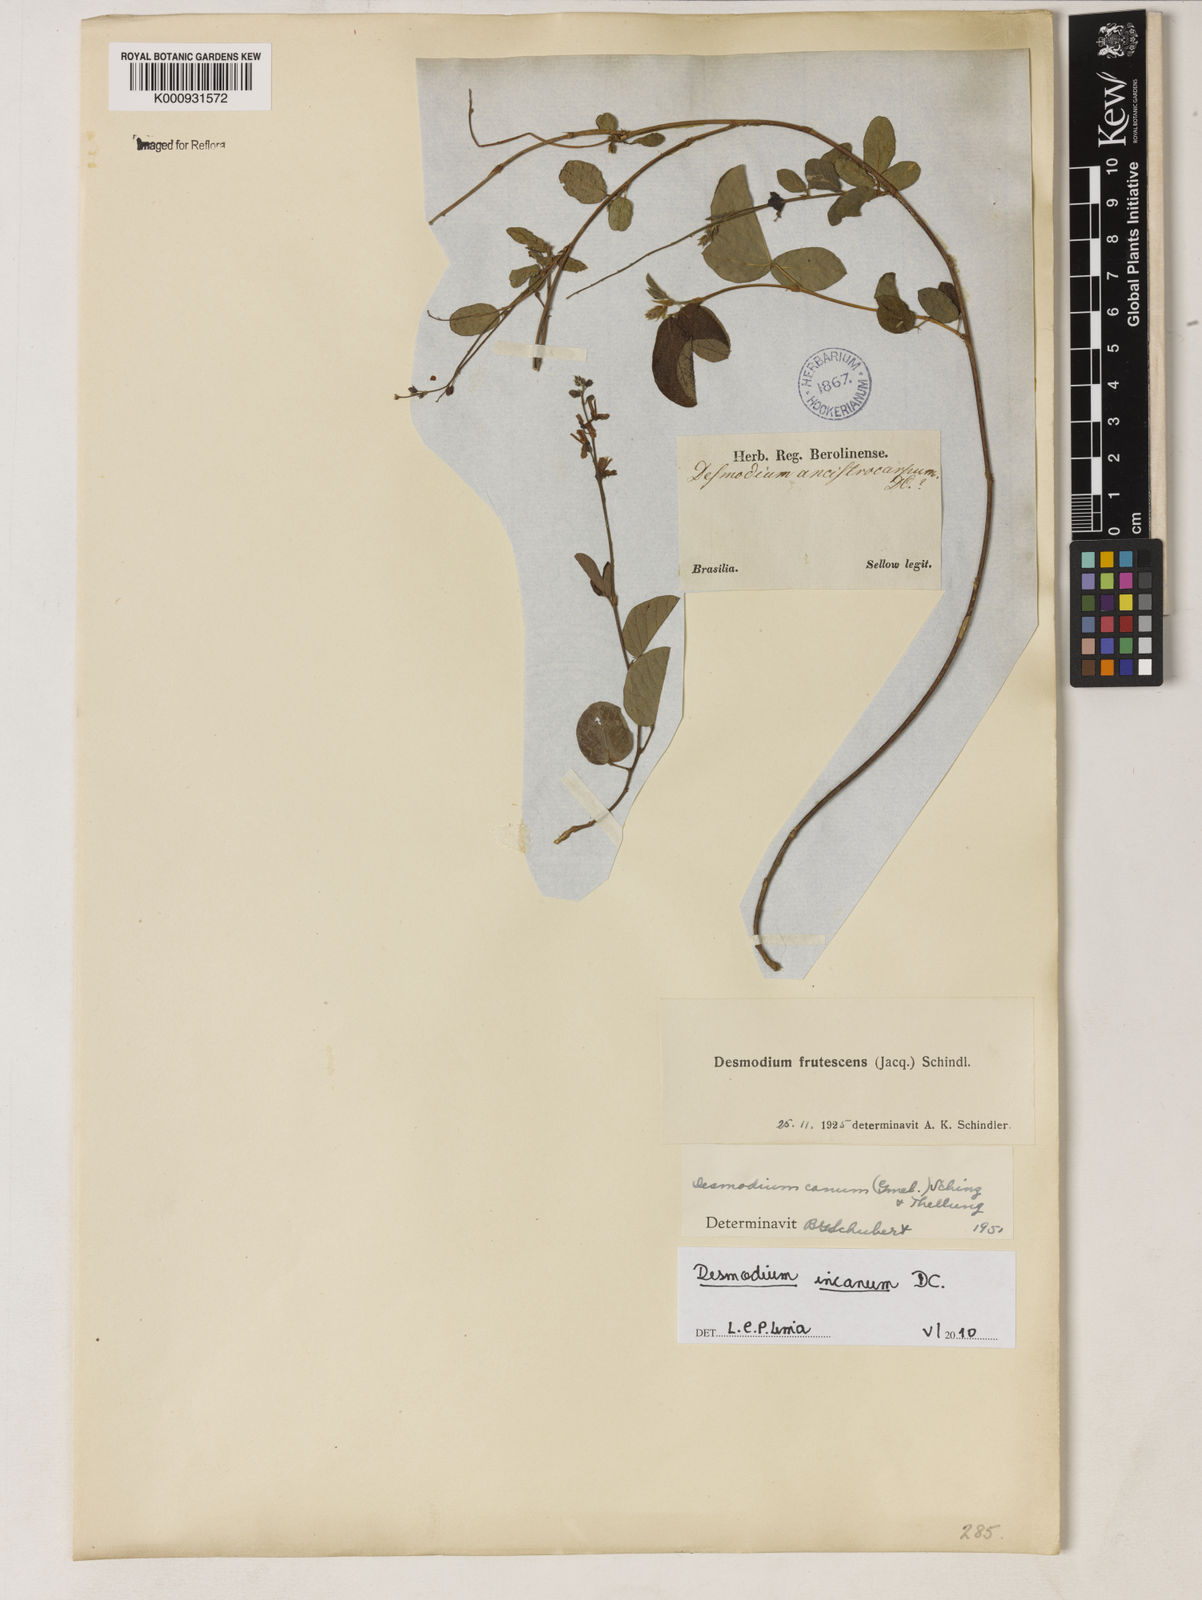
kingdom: Plantae
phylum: Tracheophyta
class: Magnoliopsida
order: Fabales
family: Fabaceae
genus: Desmodium
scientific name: Desmodium incanum
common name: Tickclover
